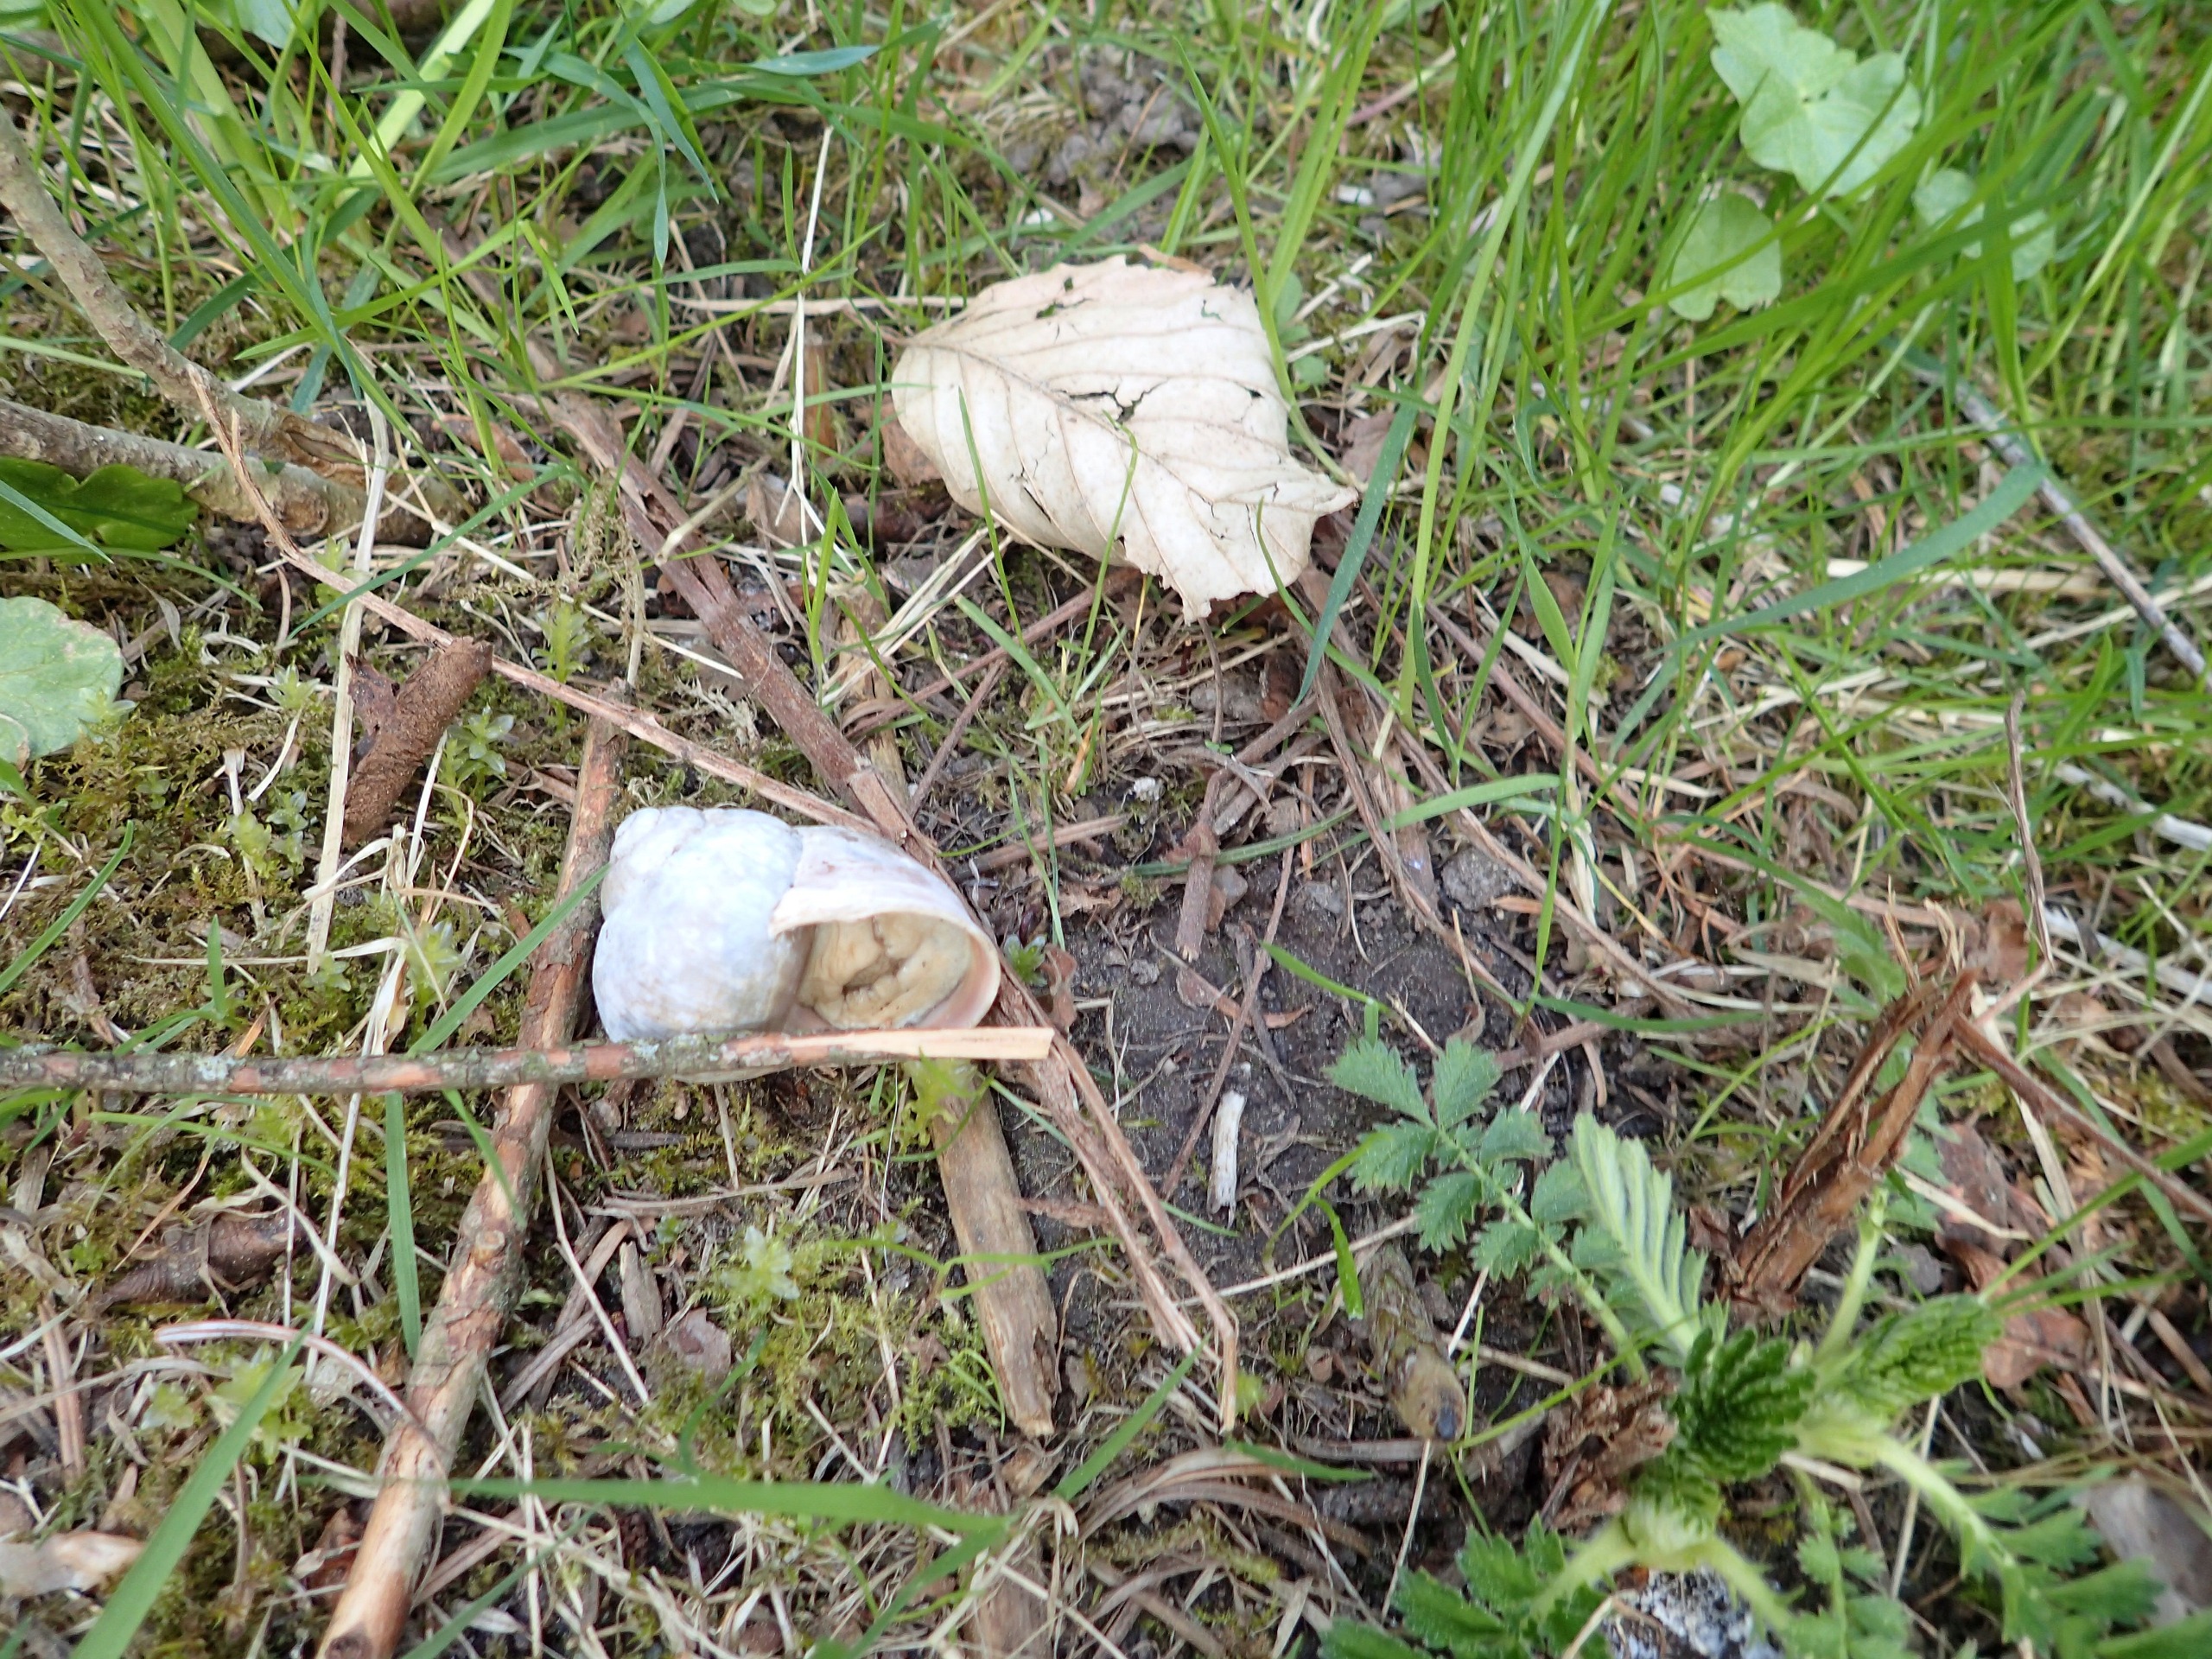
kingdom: Animalia
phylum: Mollusca
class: Gastropoda
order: Stylommatophora
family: Helicidae
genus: Helix
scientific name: Helix pomatia
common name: Vinbjergsnegl
